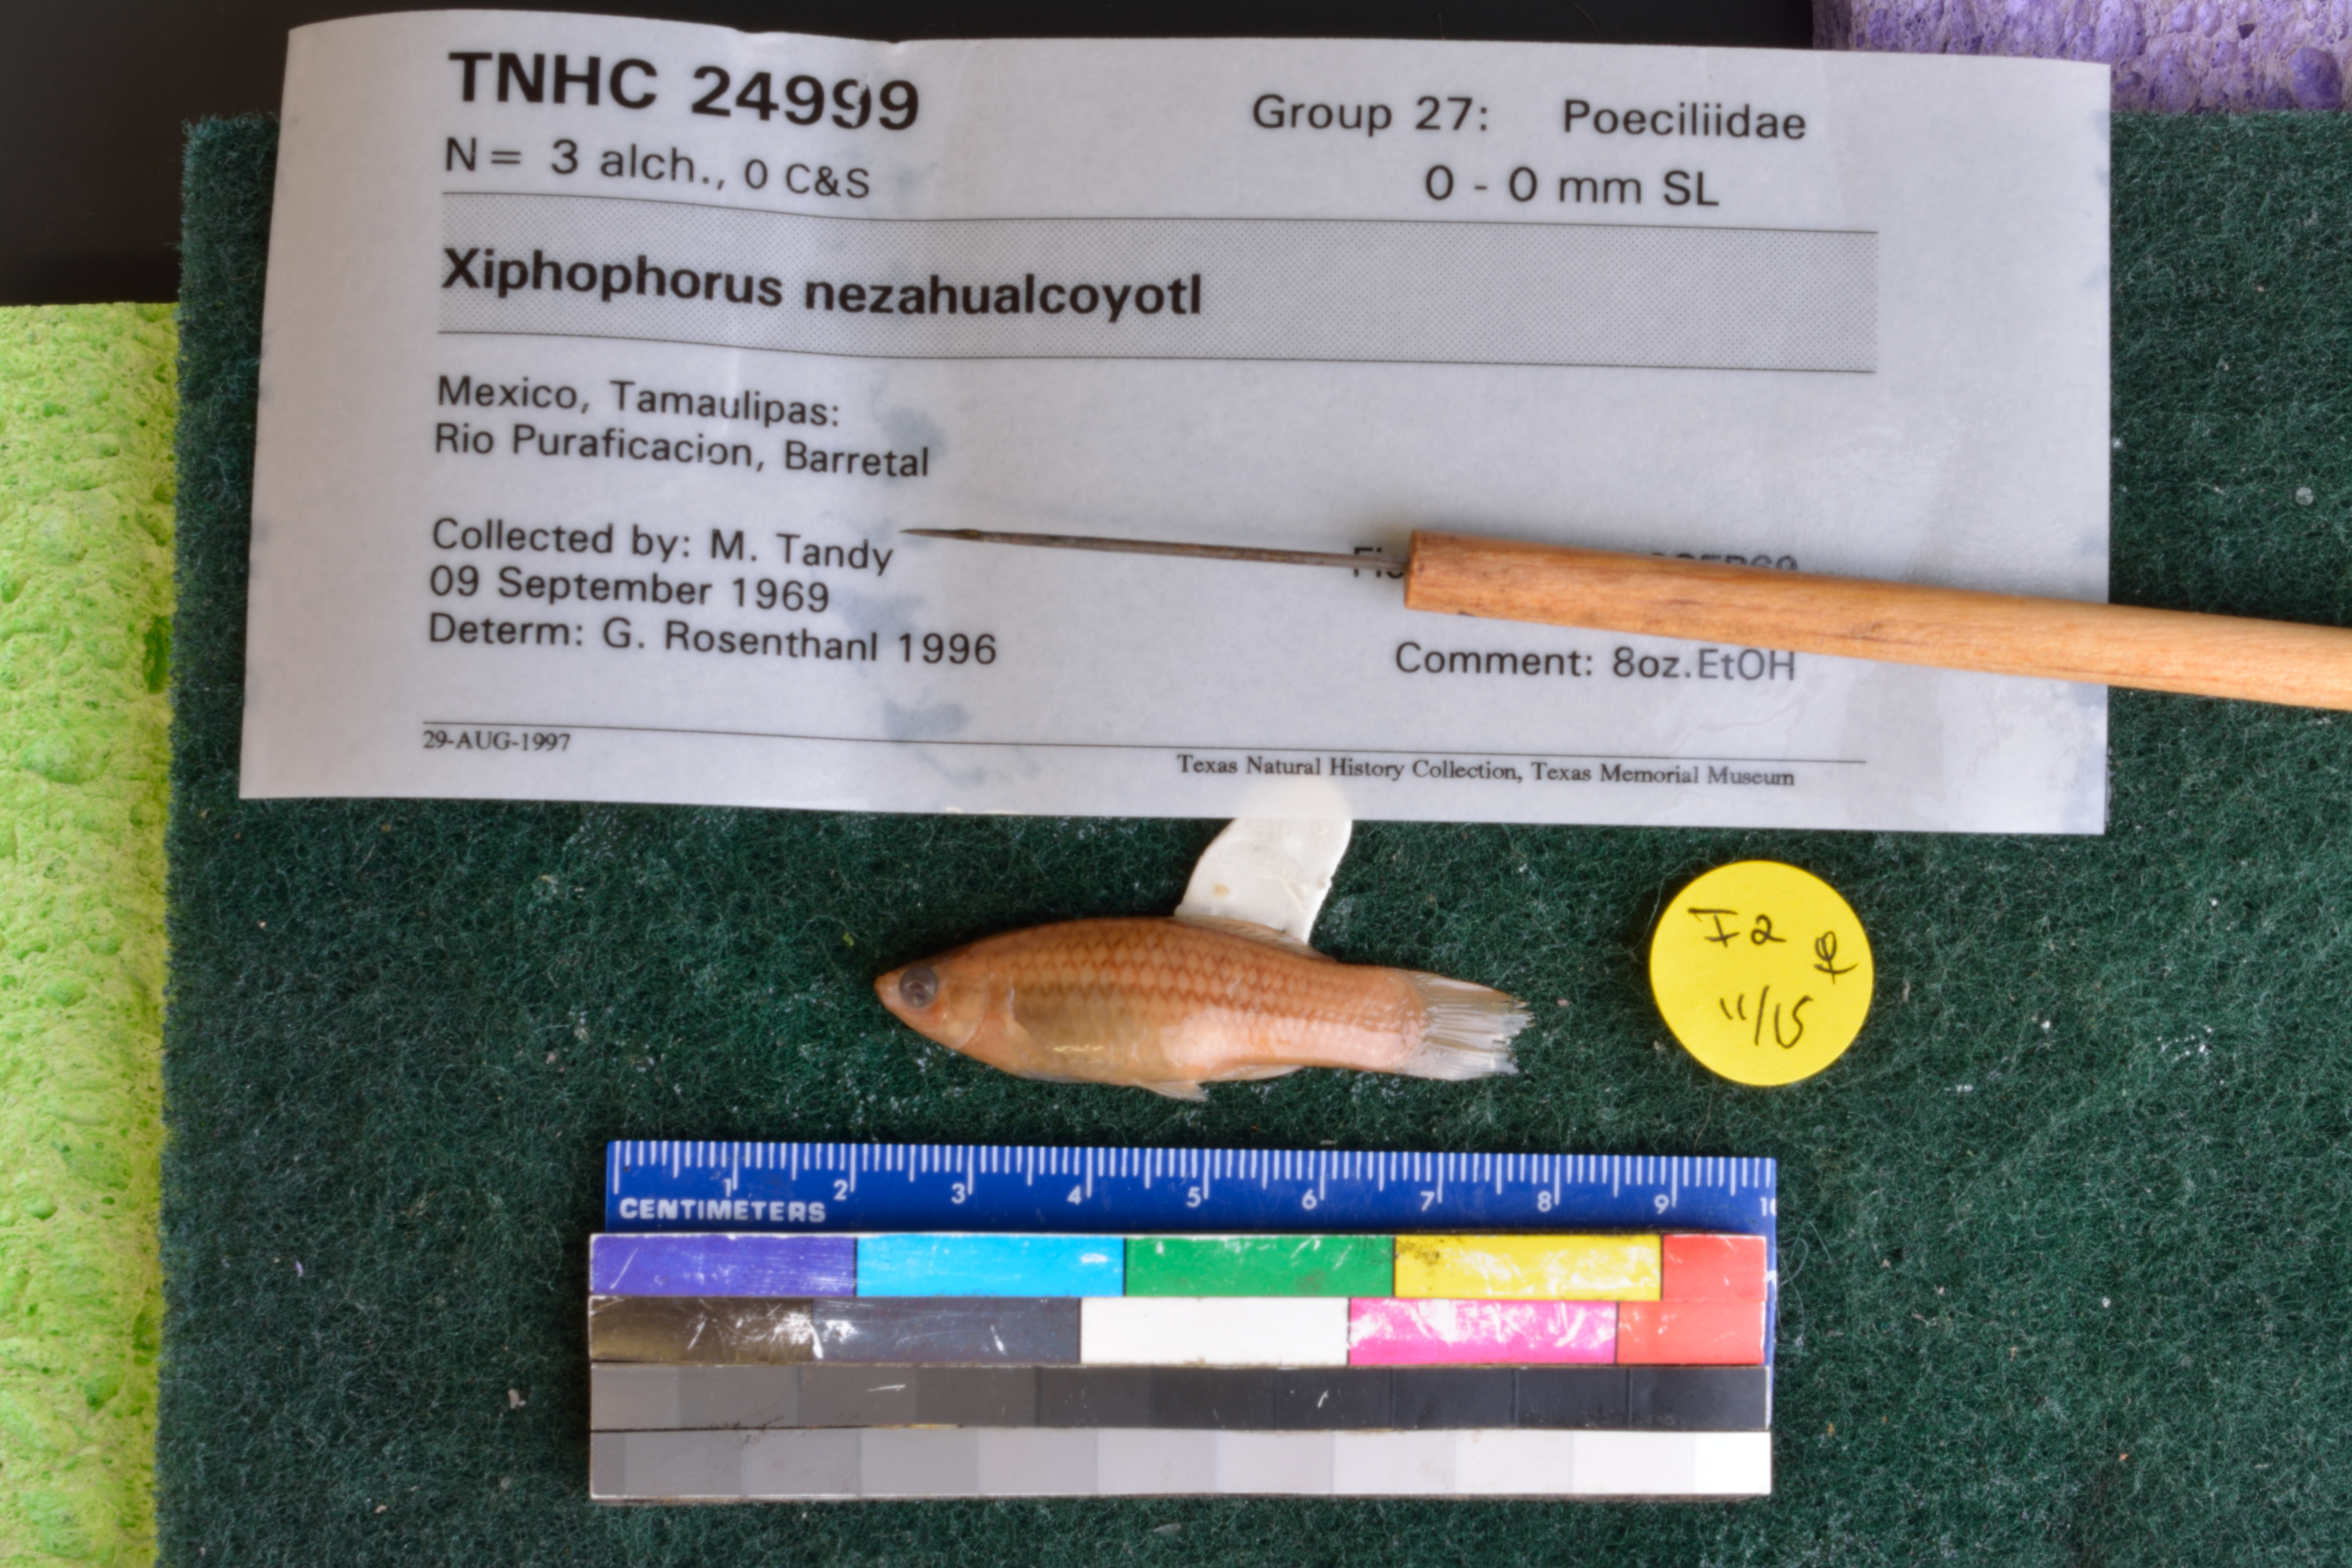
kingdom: Animalia
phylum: Chordata
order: Cyprinodontiformes
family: Poeciliidae
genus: Xiphophorus
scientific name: Xiphophorus nezahualcoyotl
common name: Mountain swordtail
